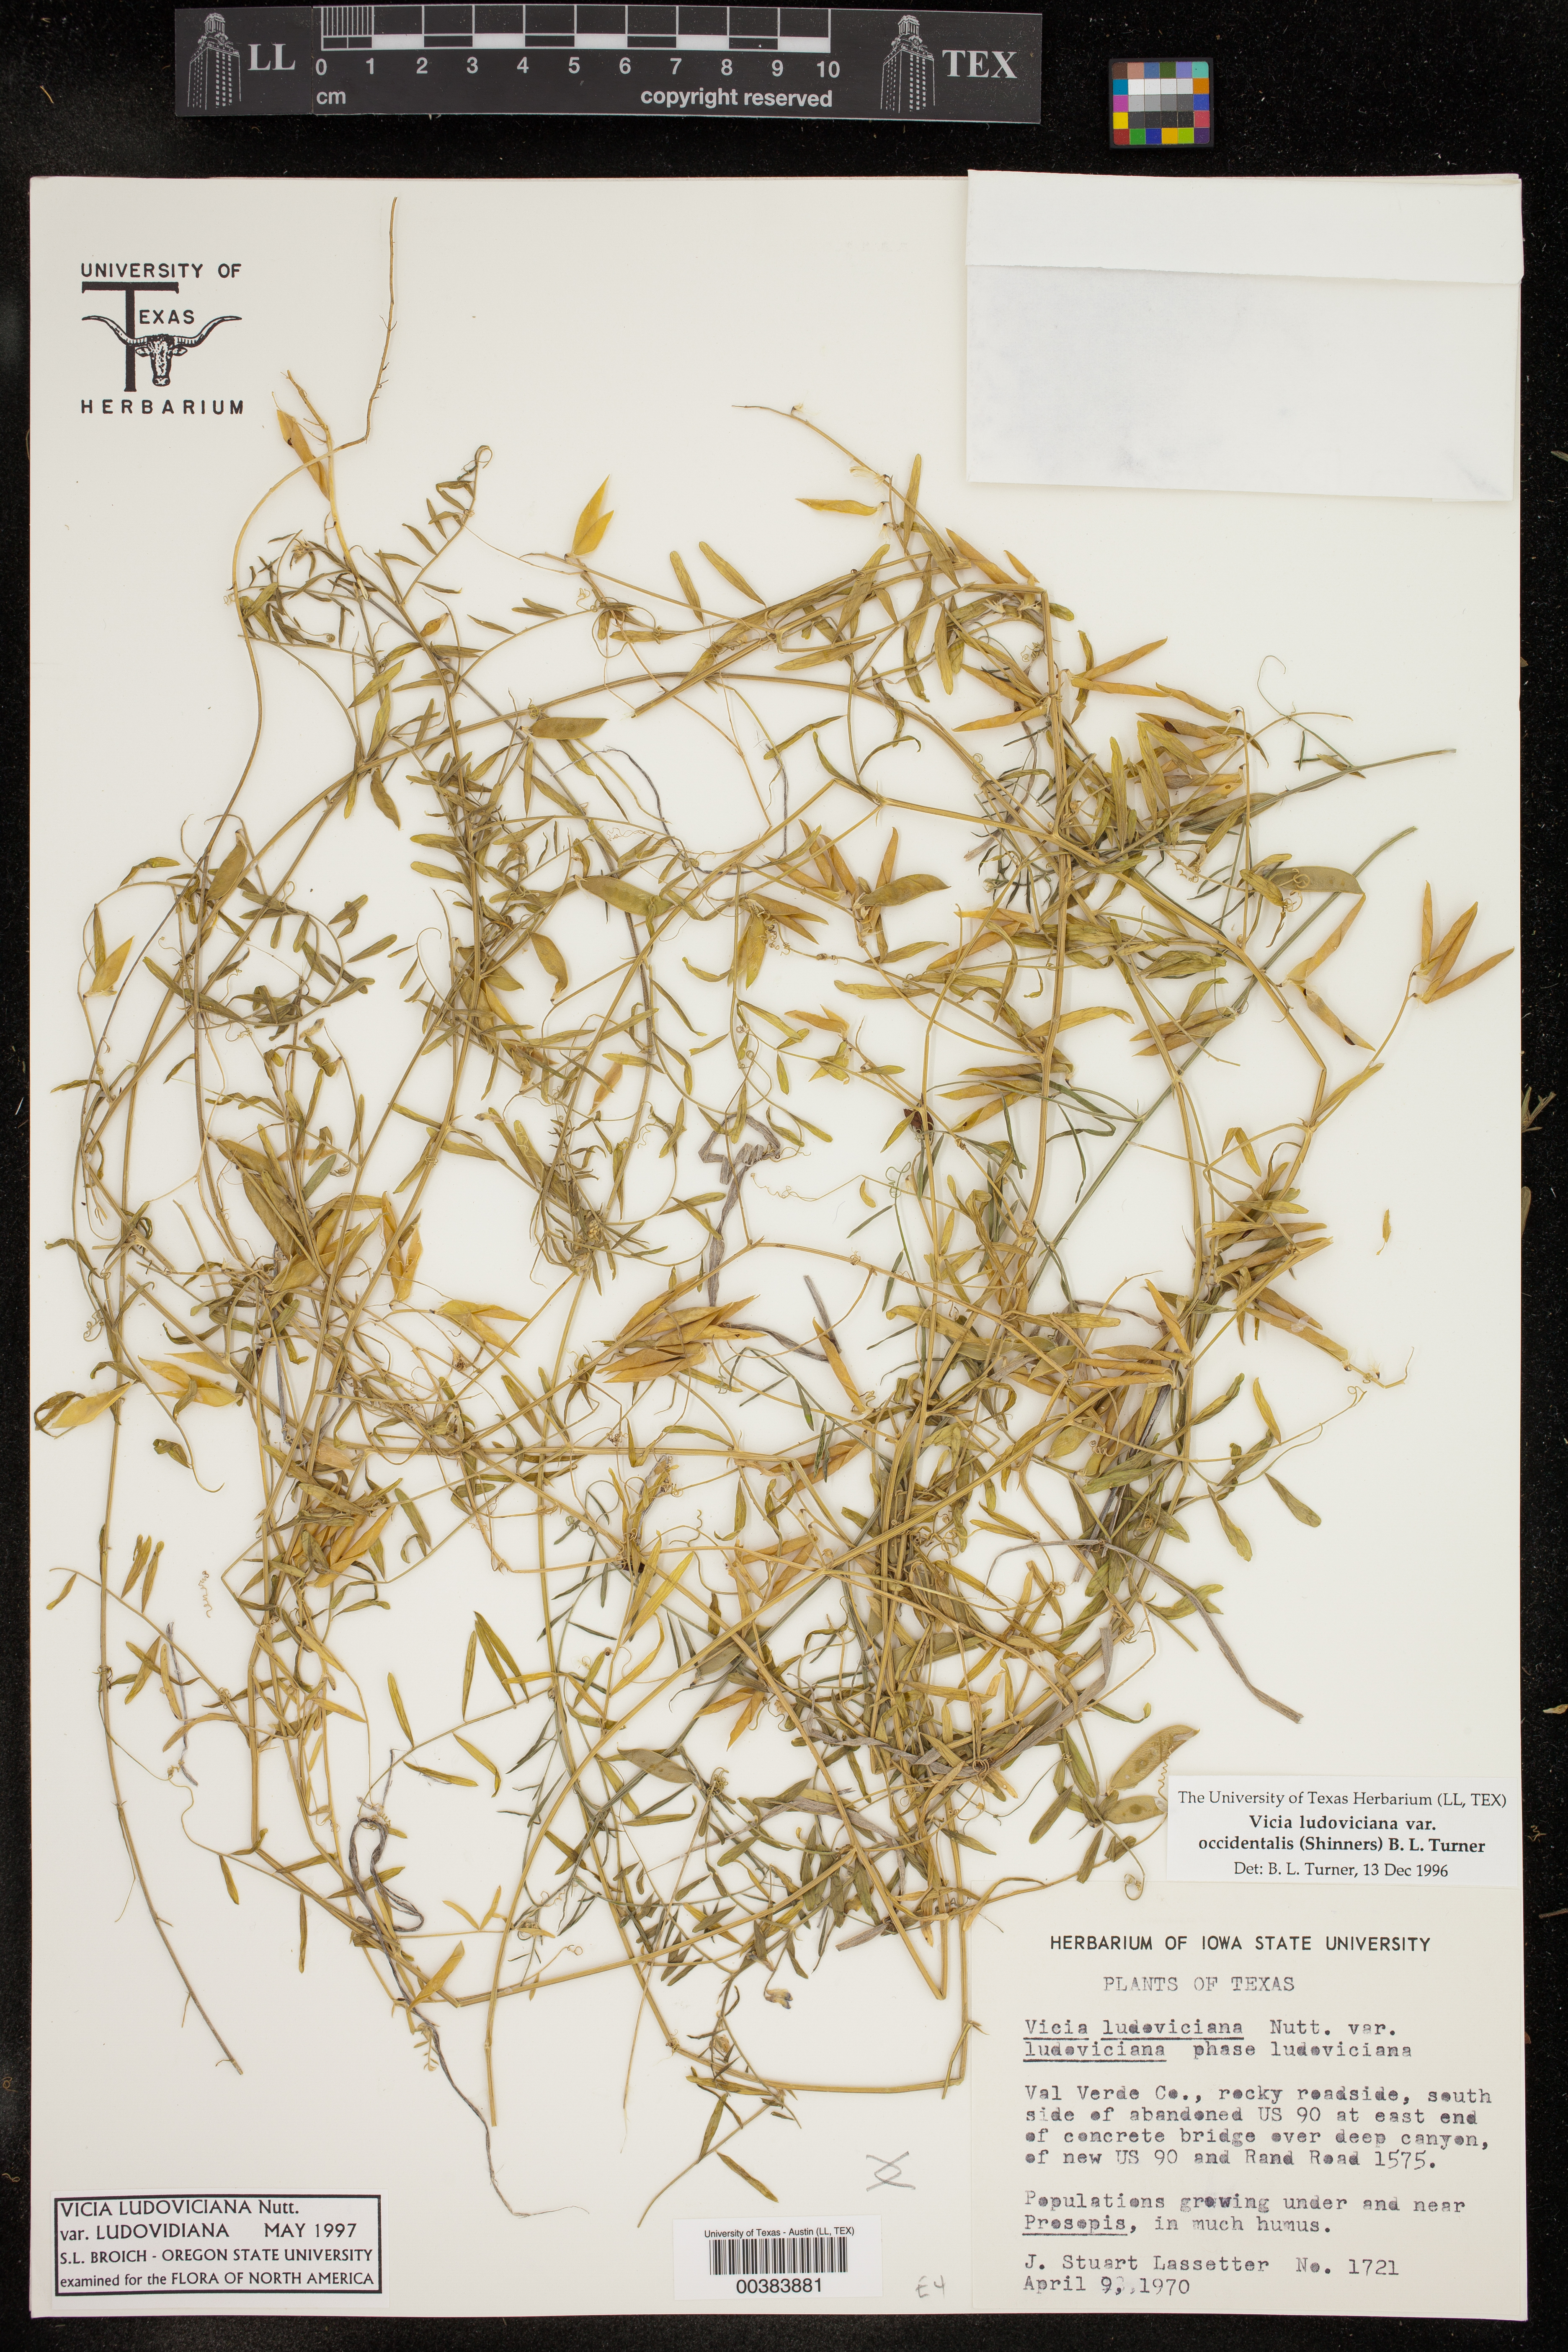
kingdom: Plantae
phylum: Tracheophyta
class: Magnoliopsida
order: Fabales
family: Fabaceae
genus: Vicia
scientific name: Vicia ludoviciana
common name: Louisiana vetch
